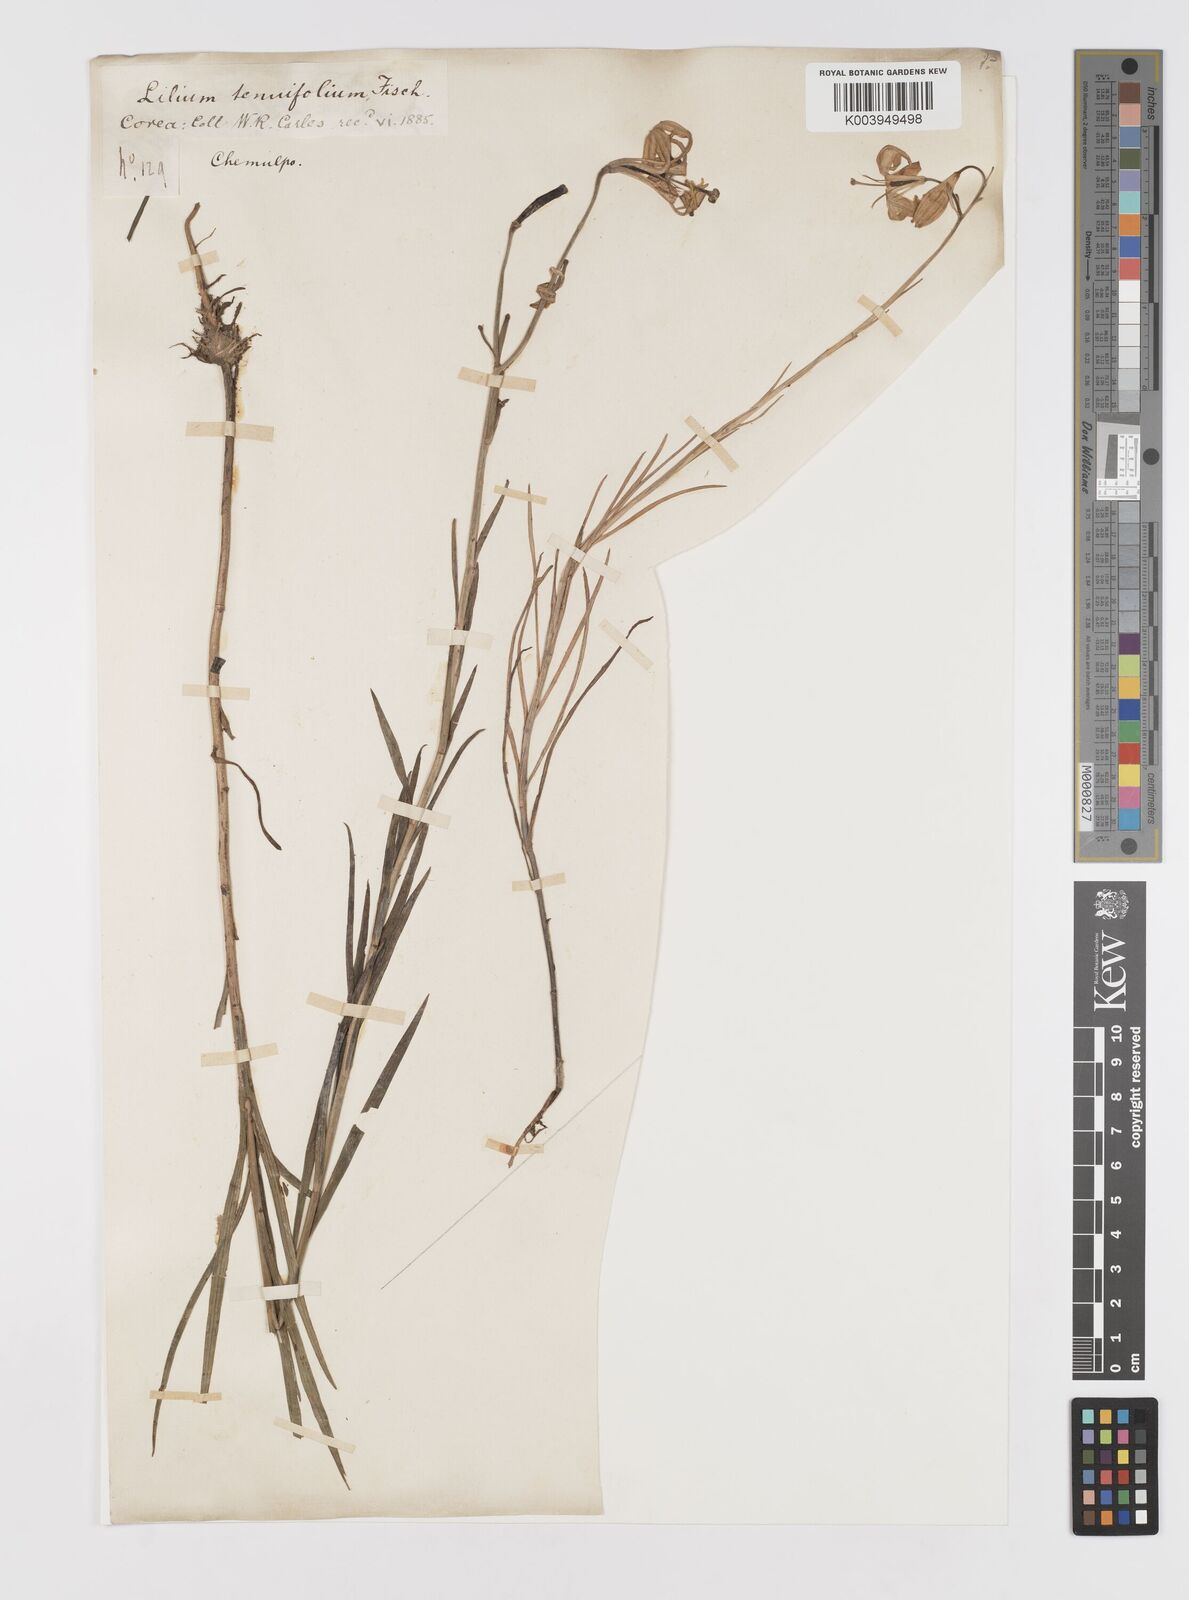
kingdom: Plantae
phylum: Tracheophyta
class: Liliopsida
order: Liliales
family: Liliaceae
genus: Lilium
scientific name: Lilium callosum
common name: Slim-stem lily
